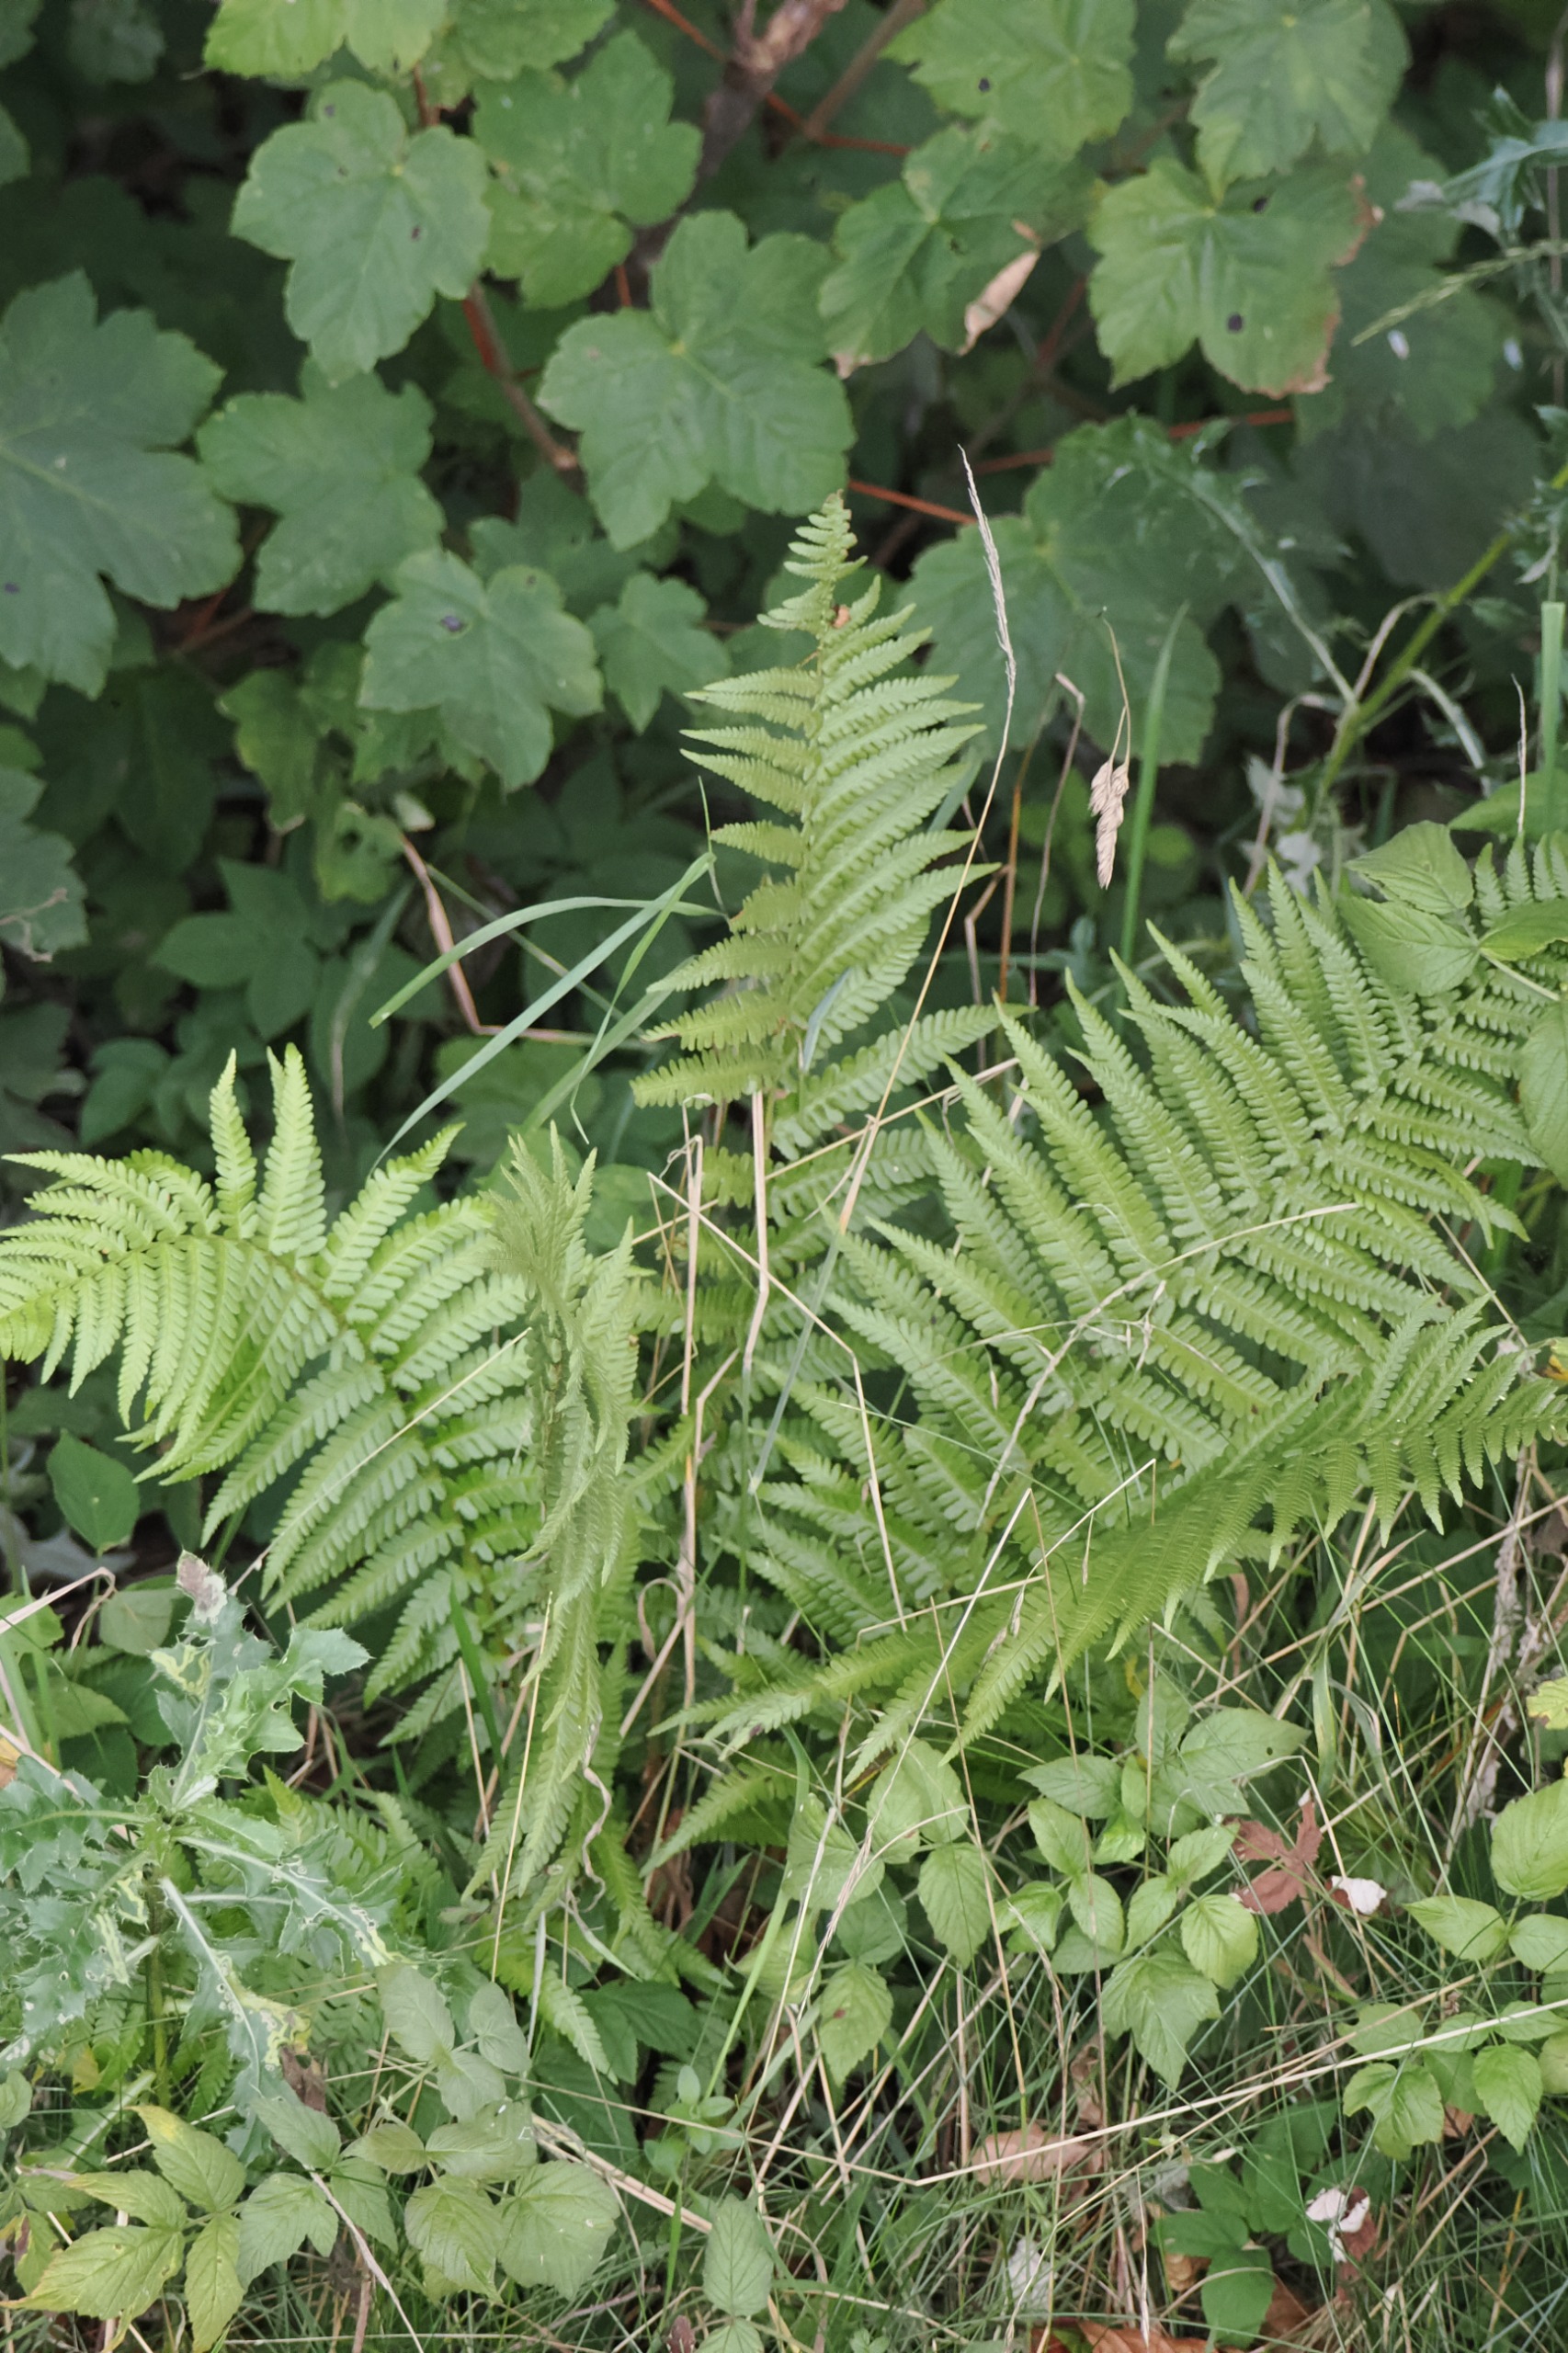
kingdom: Plantae
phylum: Tracheophyta
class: Polypodiopsida
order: Polypodiales
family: Dryopteridaceae
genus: Dryopteris
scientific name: Dryopteris filix-mas
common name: Almindelig mangeløv
